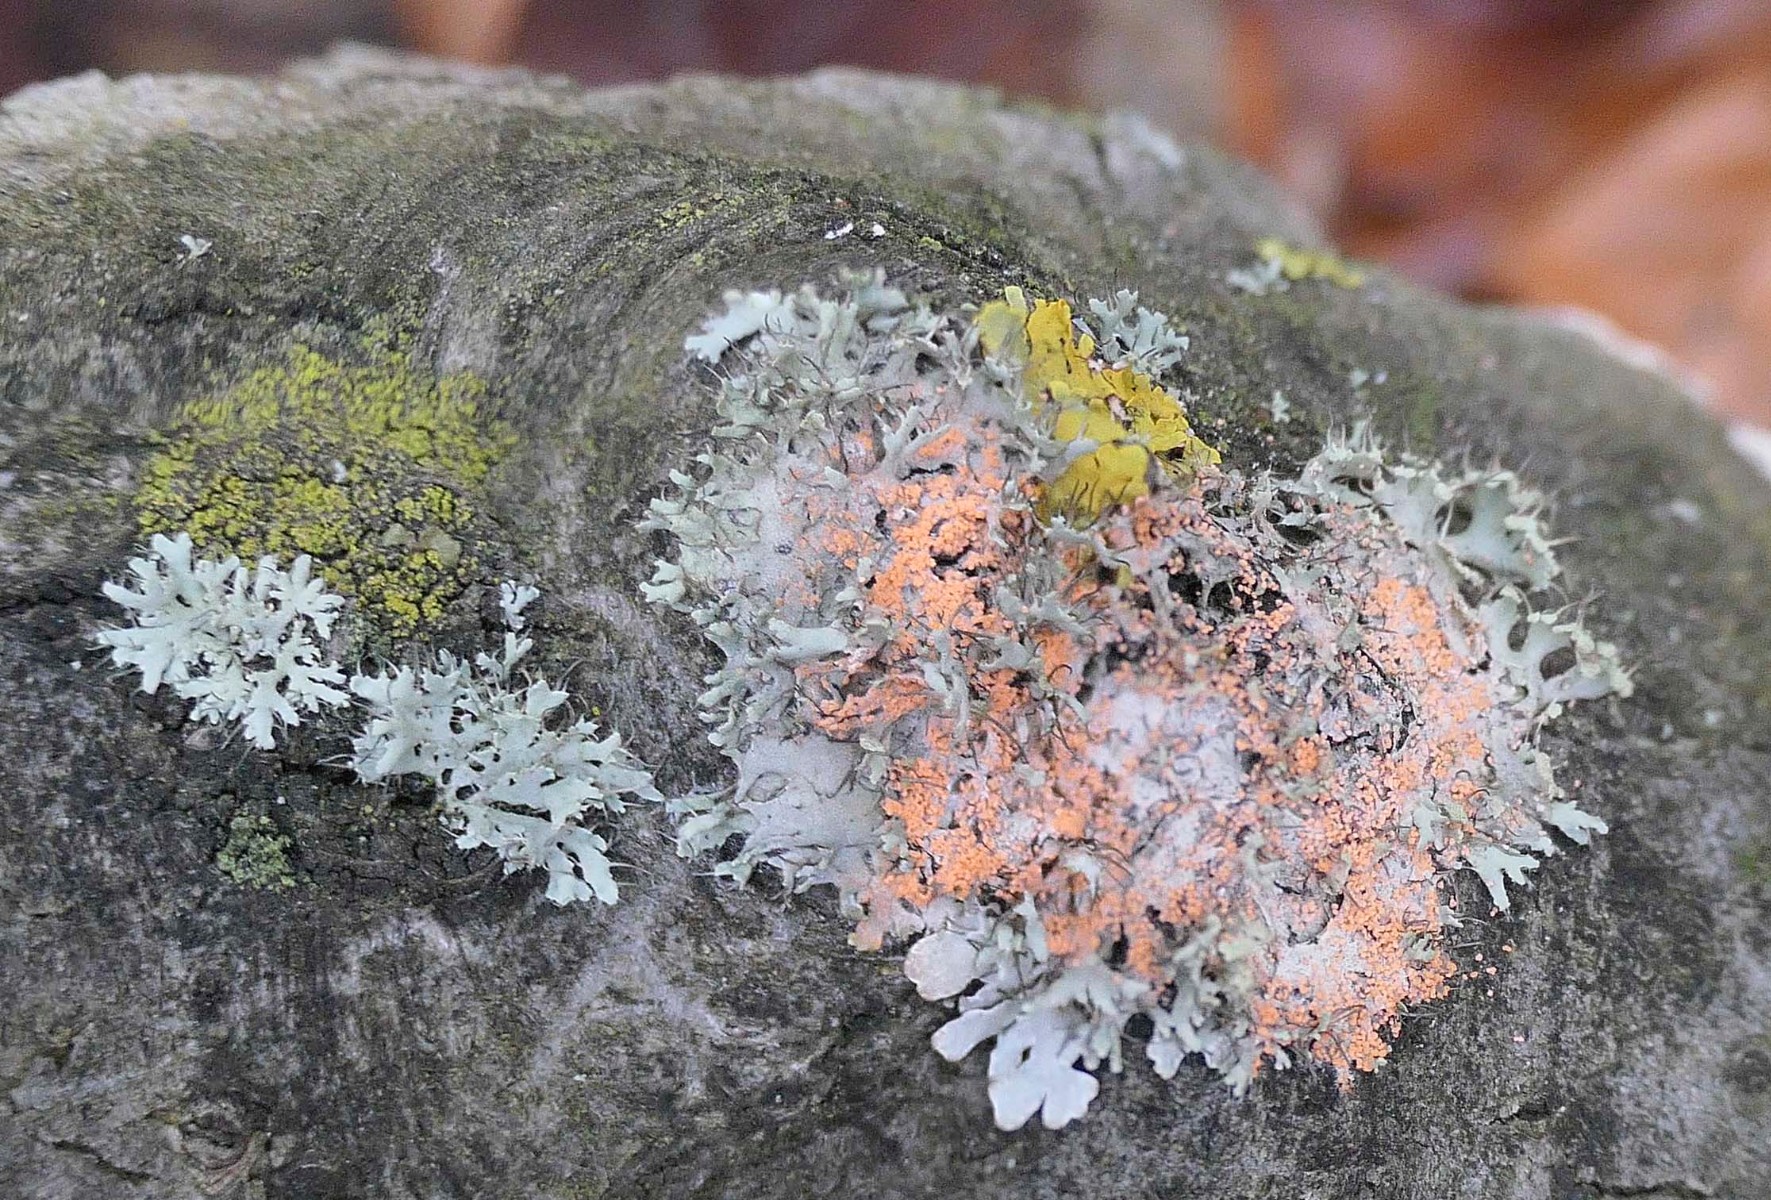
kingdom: Fungi
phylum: Basidiomycota
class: Agaricomycetes
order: Corticiales
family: Corticiaceae
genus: Erythricium
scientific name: Erythricium aurantiacum
